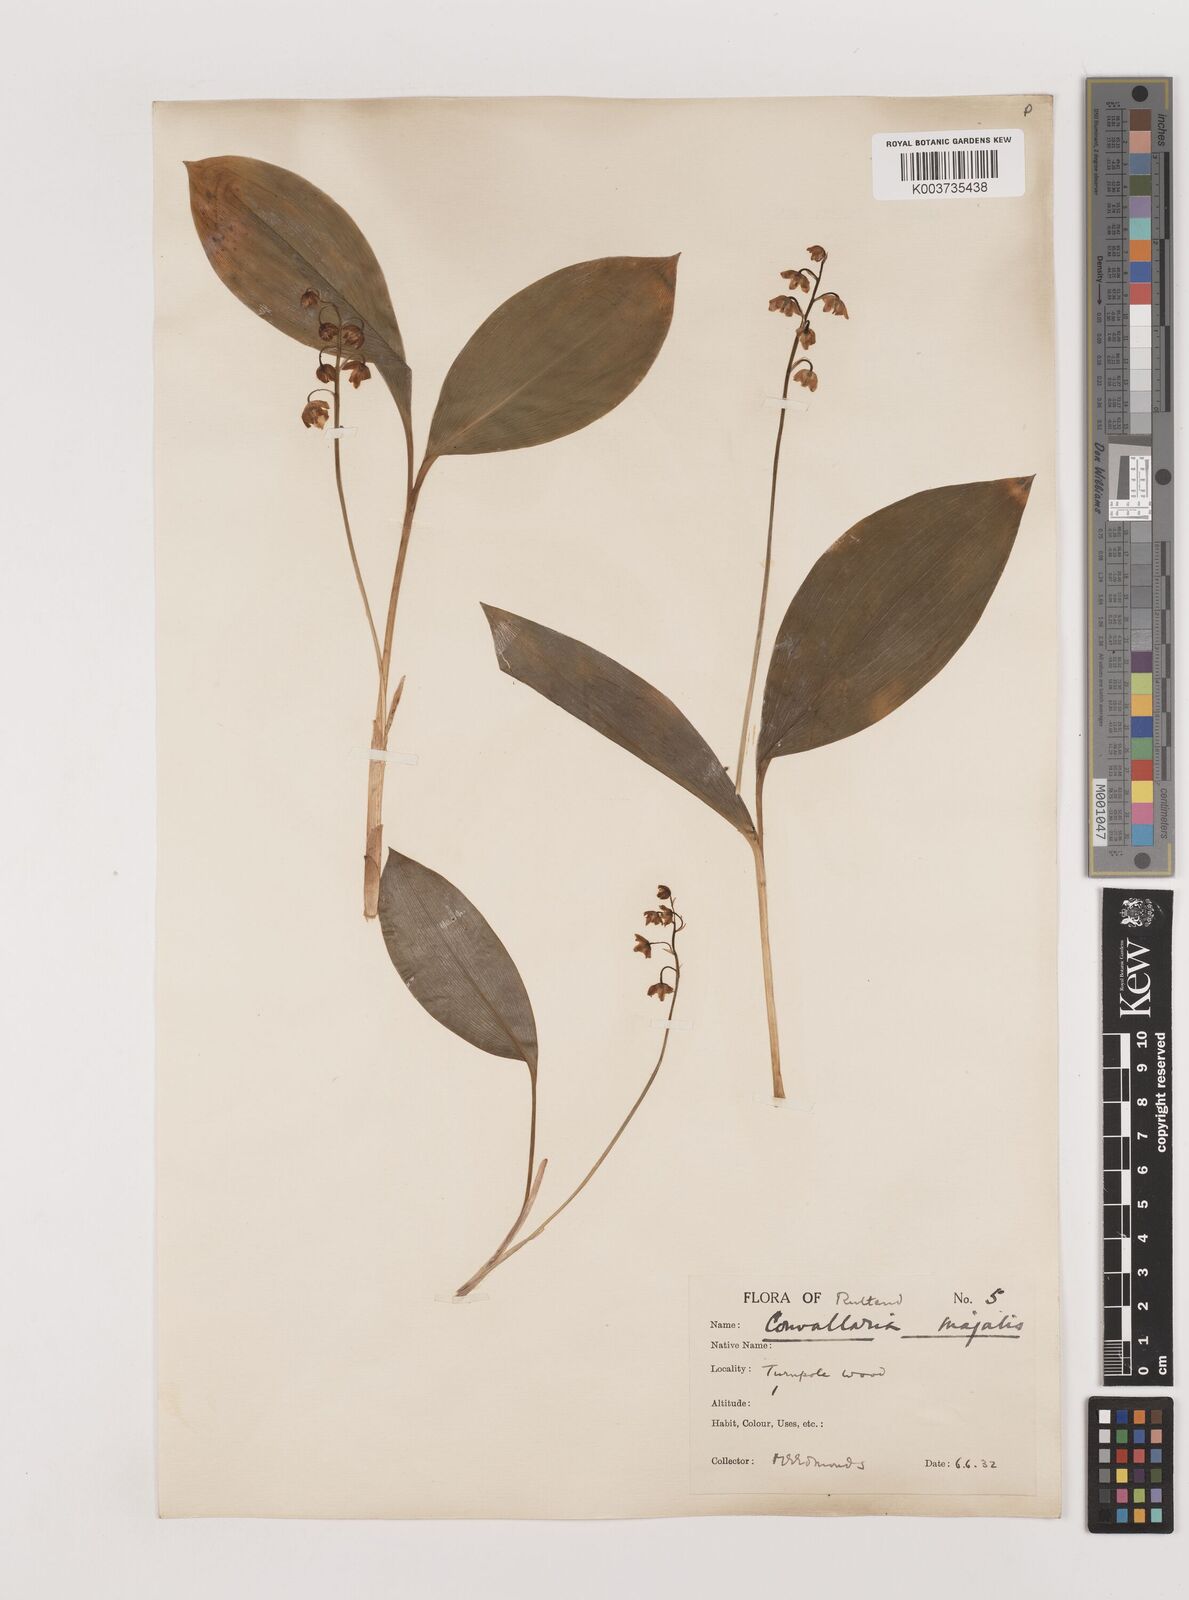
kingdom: Plantae
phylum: Tracheophyta
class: Liliopsida
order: Asparagales
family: Asparagaceae
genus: Convallaria
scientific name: Convallaria majalis
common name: Lily-of-the-valley
